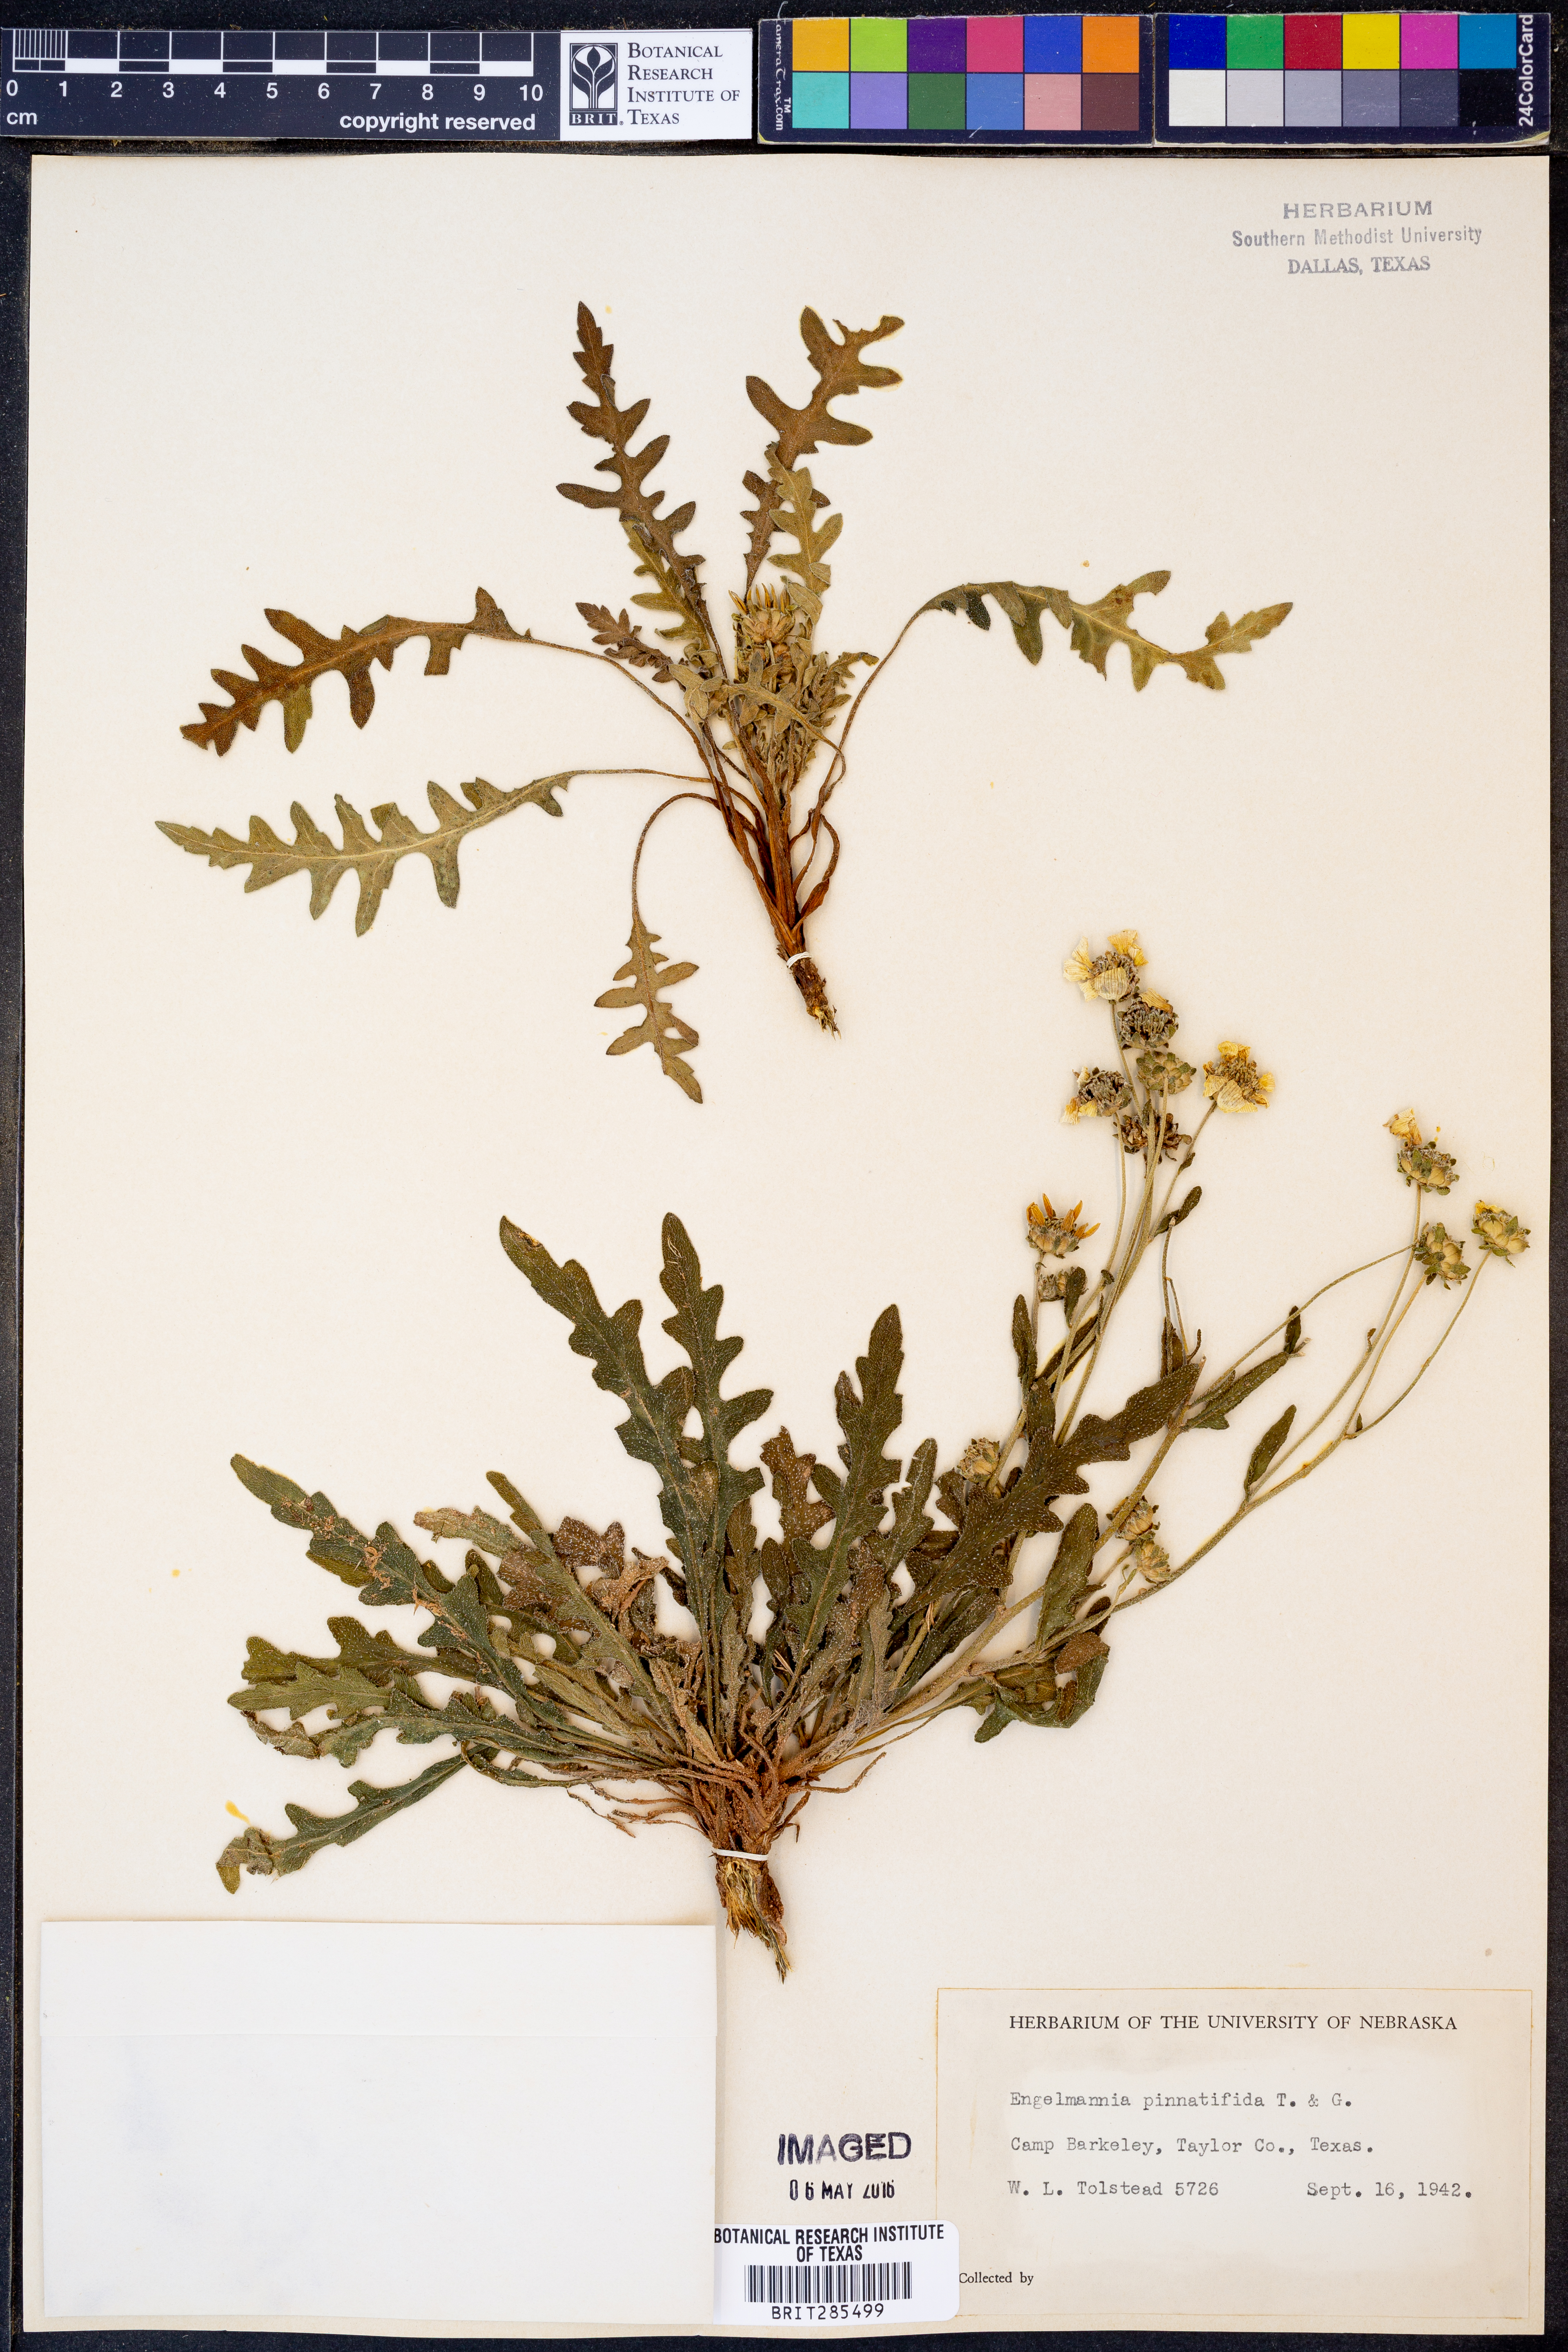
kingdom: Plantae
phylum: Tracheophyta
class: Magnoliopsida
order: Asterales
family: Asteraceae
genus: Engelmannia
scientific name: Engelmannia peristenia
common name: Engelmann's daisy
